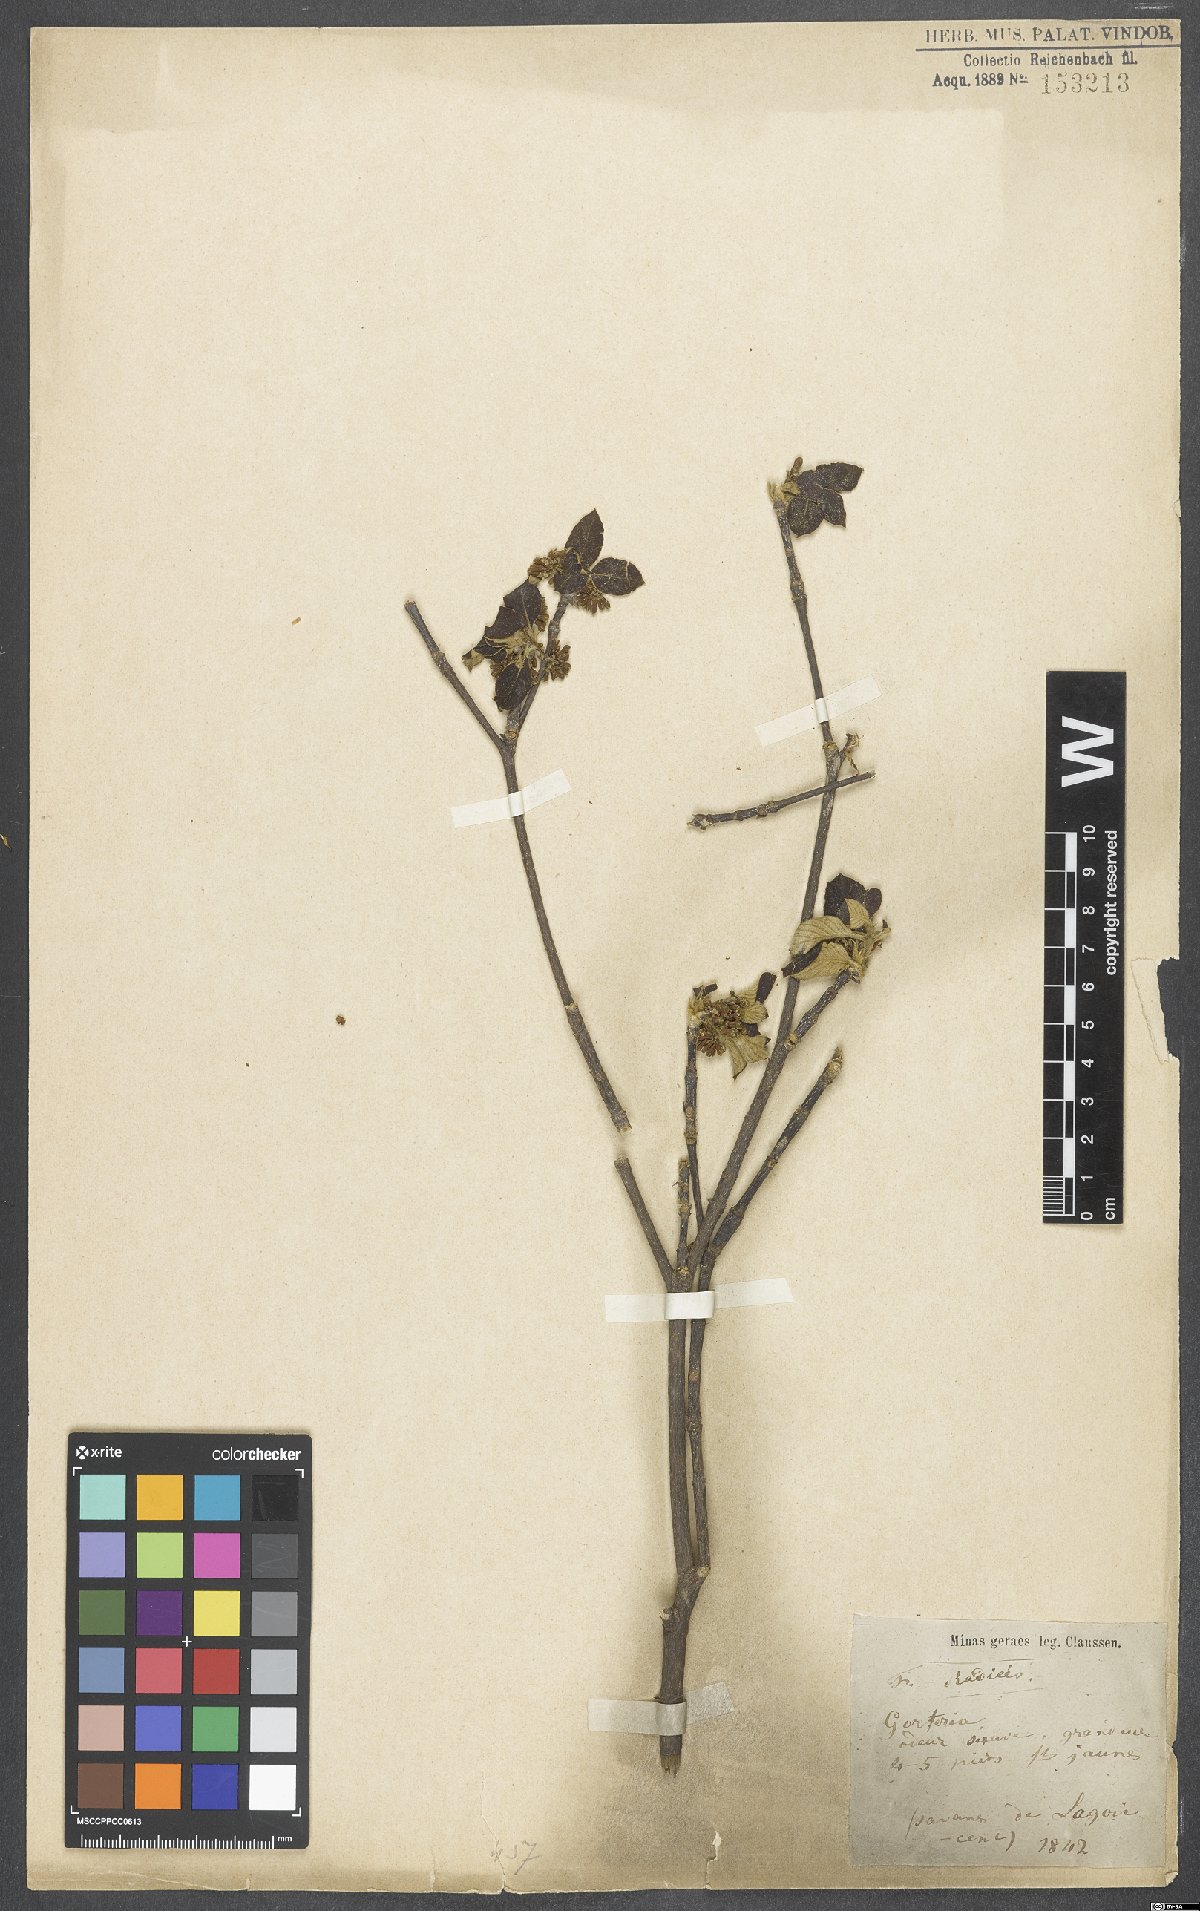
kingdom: Plantae
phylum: Tracheophyta
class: Magnoliopsida
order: Asterales
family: Asteraceae
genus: Gorteria
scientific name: Gorteria
